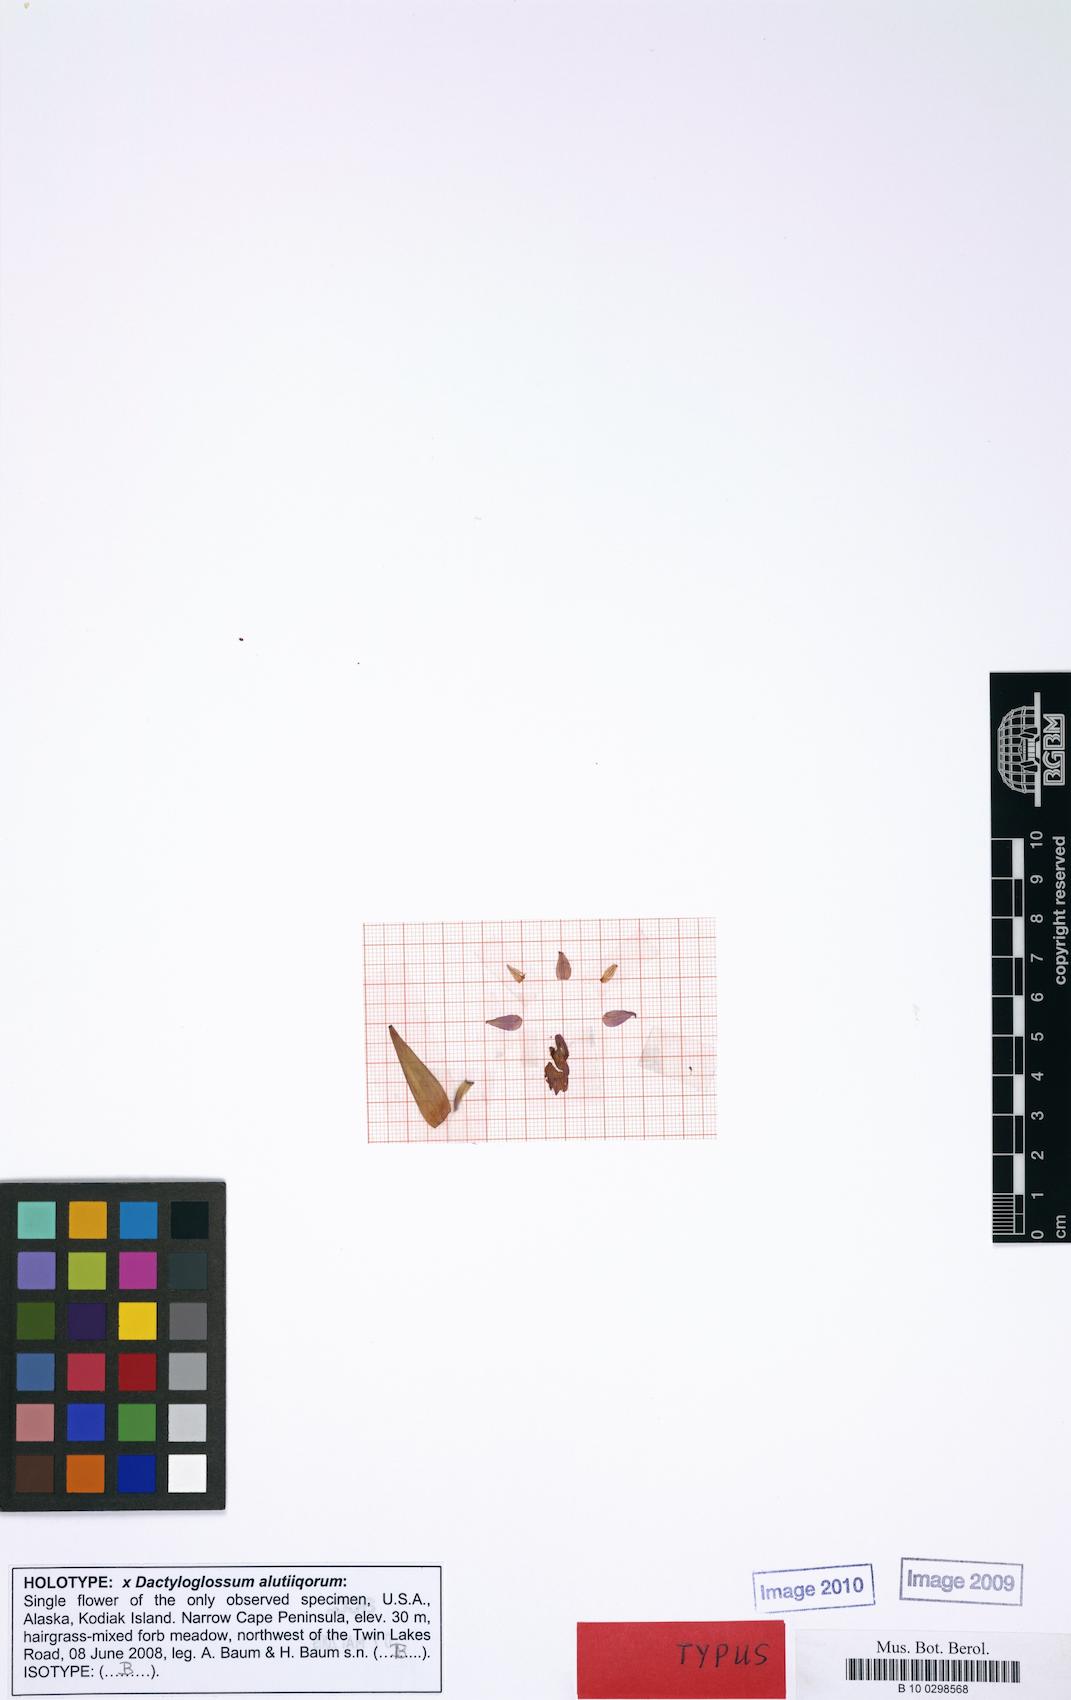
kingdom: Plantae
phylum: Tracheophyta
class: Liliopsida
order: Asparagales
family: Orchidaceae
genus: Dactylorhiza
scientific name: Dactylorhiza alutiiqorum
